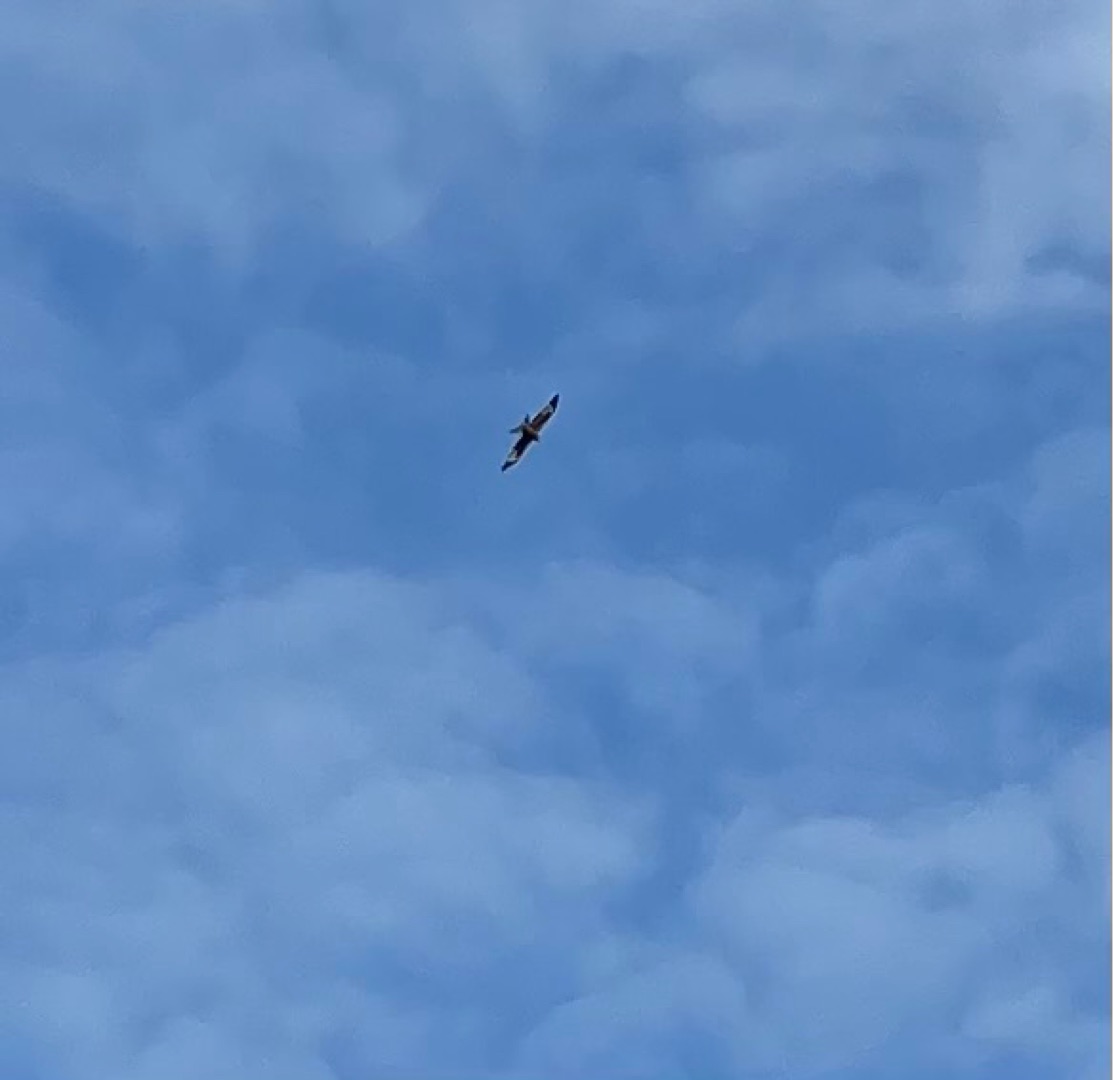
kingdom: Animalia
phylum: Chordata
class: Aves
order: Accipitriformes
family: Accipitridae
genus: Milvus
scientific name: Milvus milvus
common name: Rød glente
